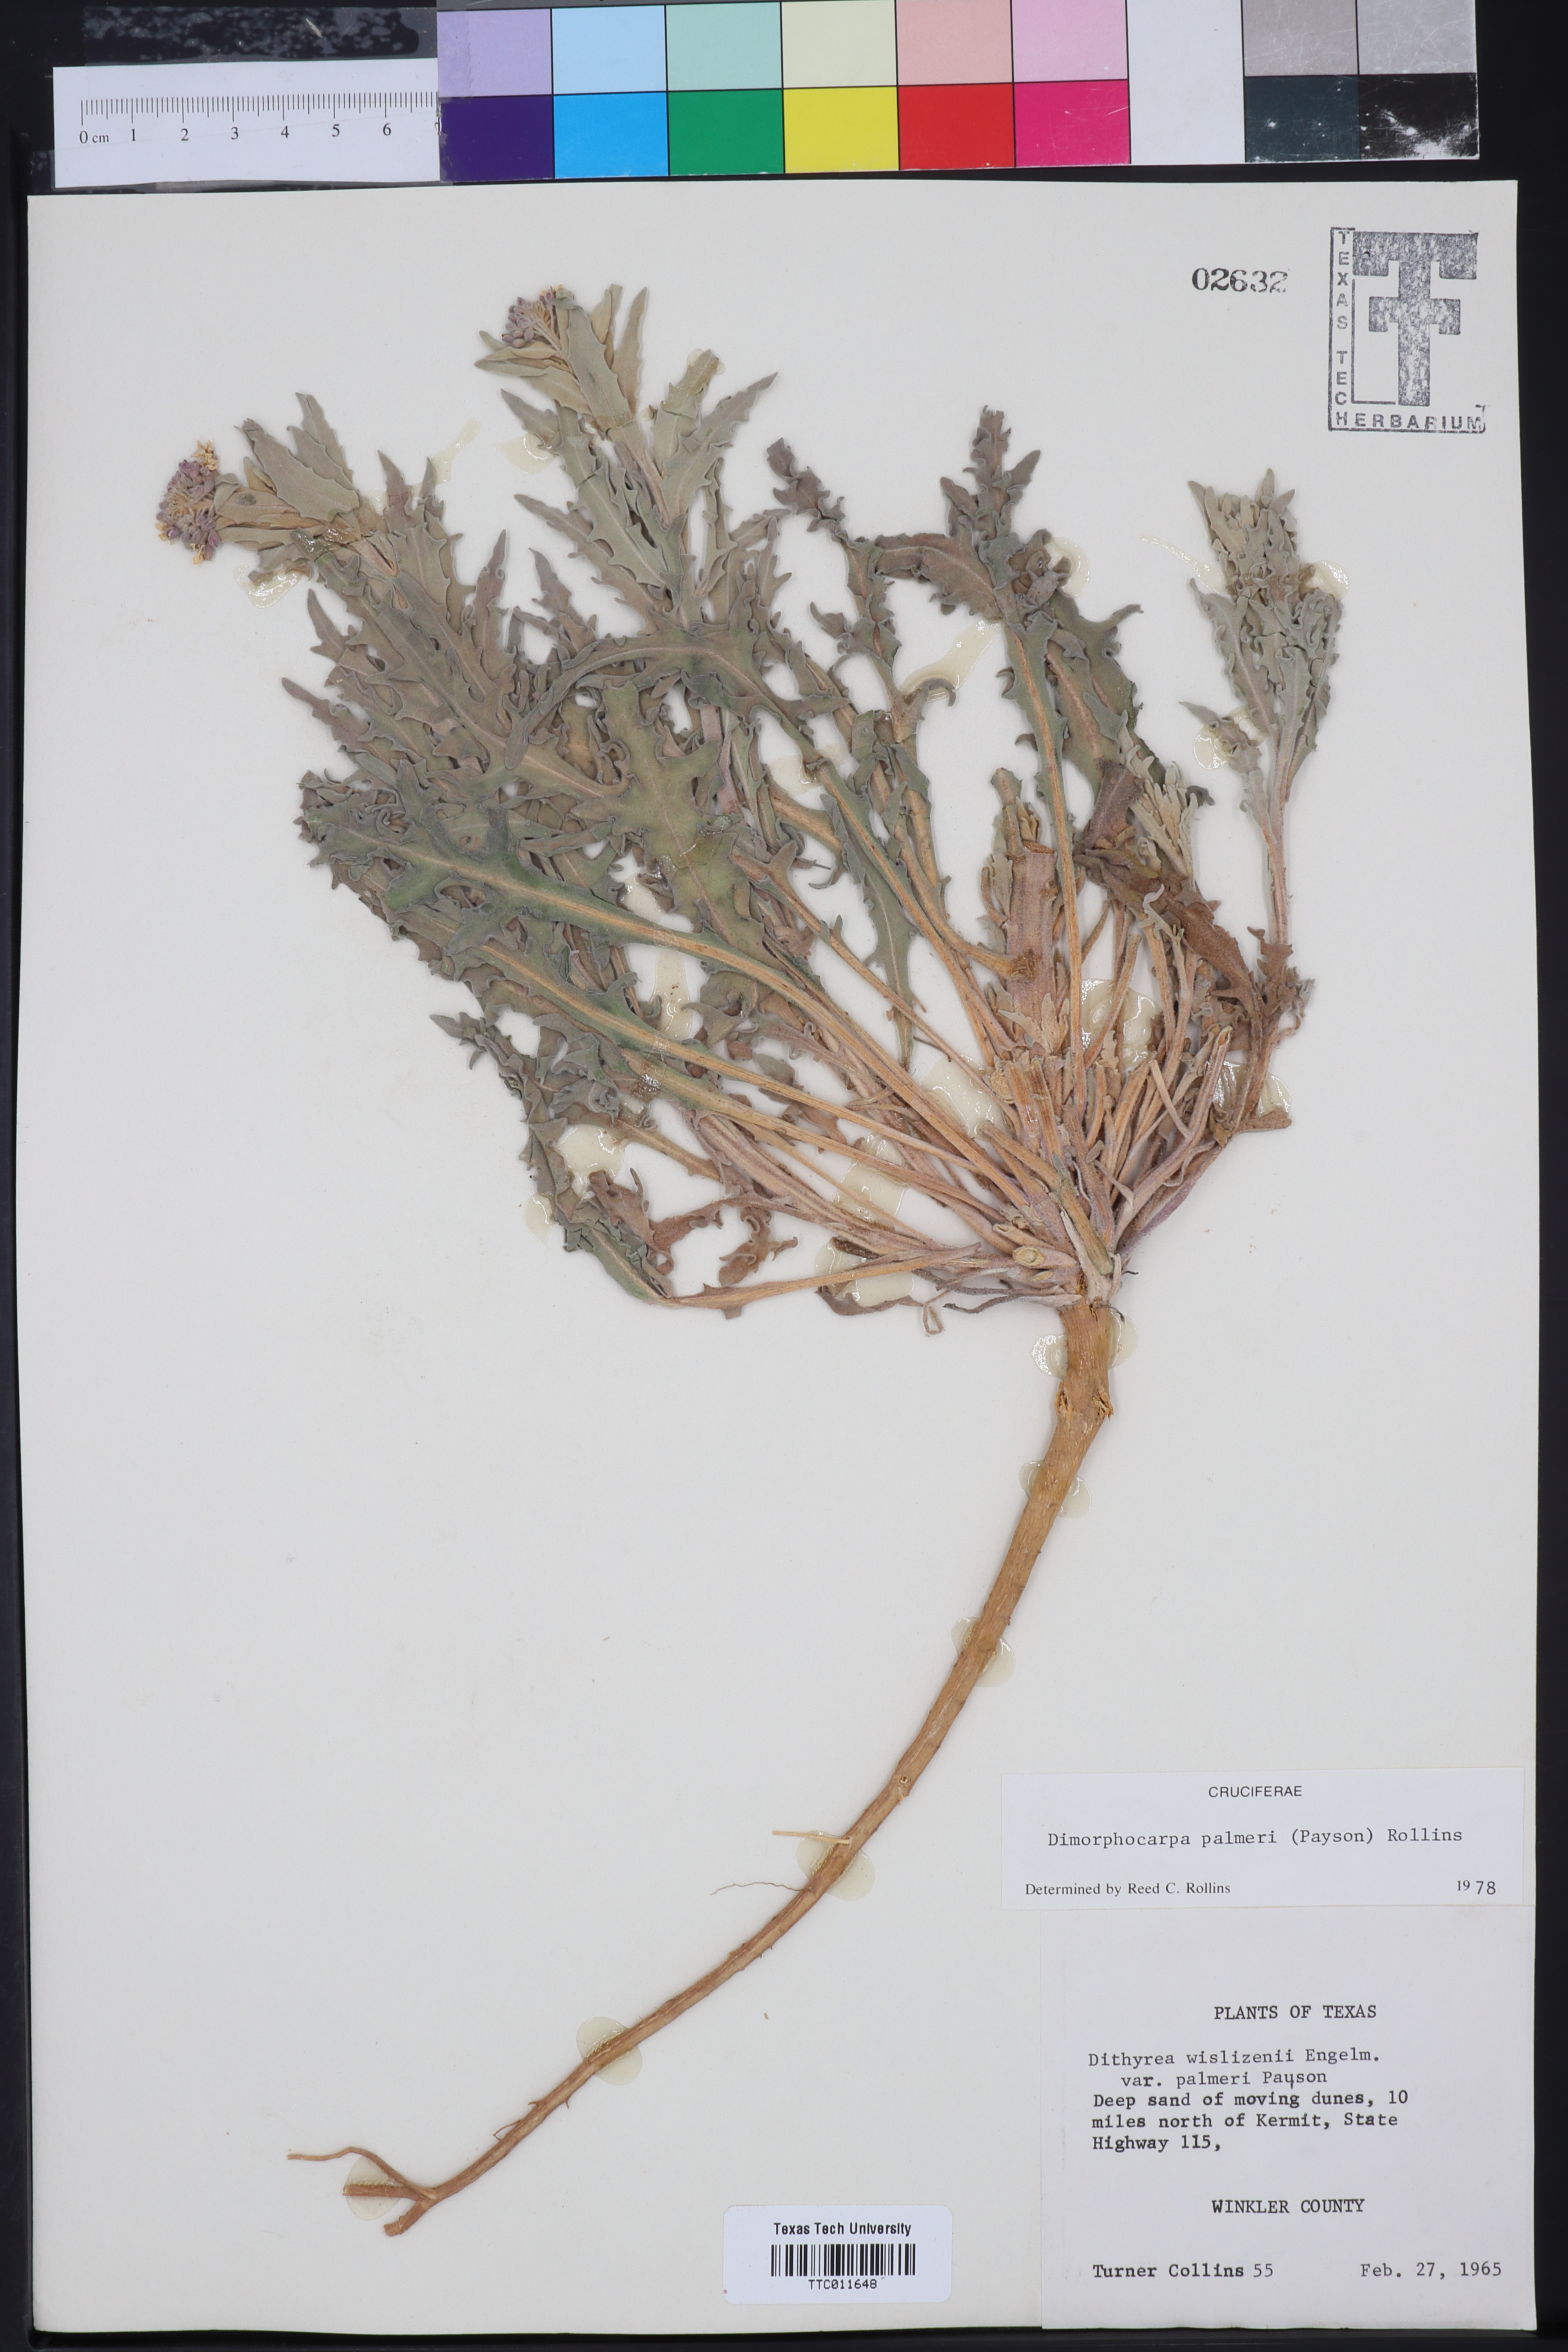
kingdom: Plantae
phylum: Tracheophyta
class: Magnoliopsida
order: Brassicales
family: Brassicaceae
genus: Dimorphocarpa
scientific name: Dimorphocarpa candicans
